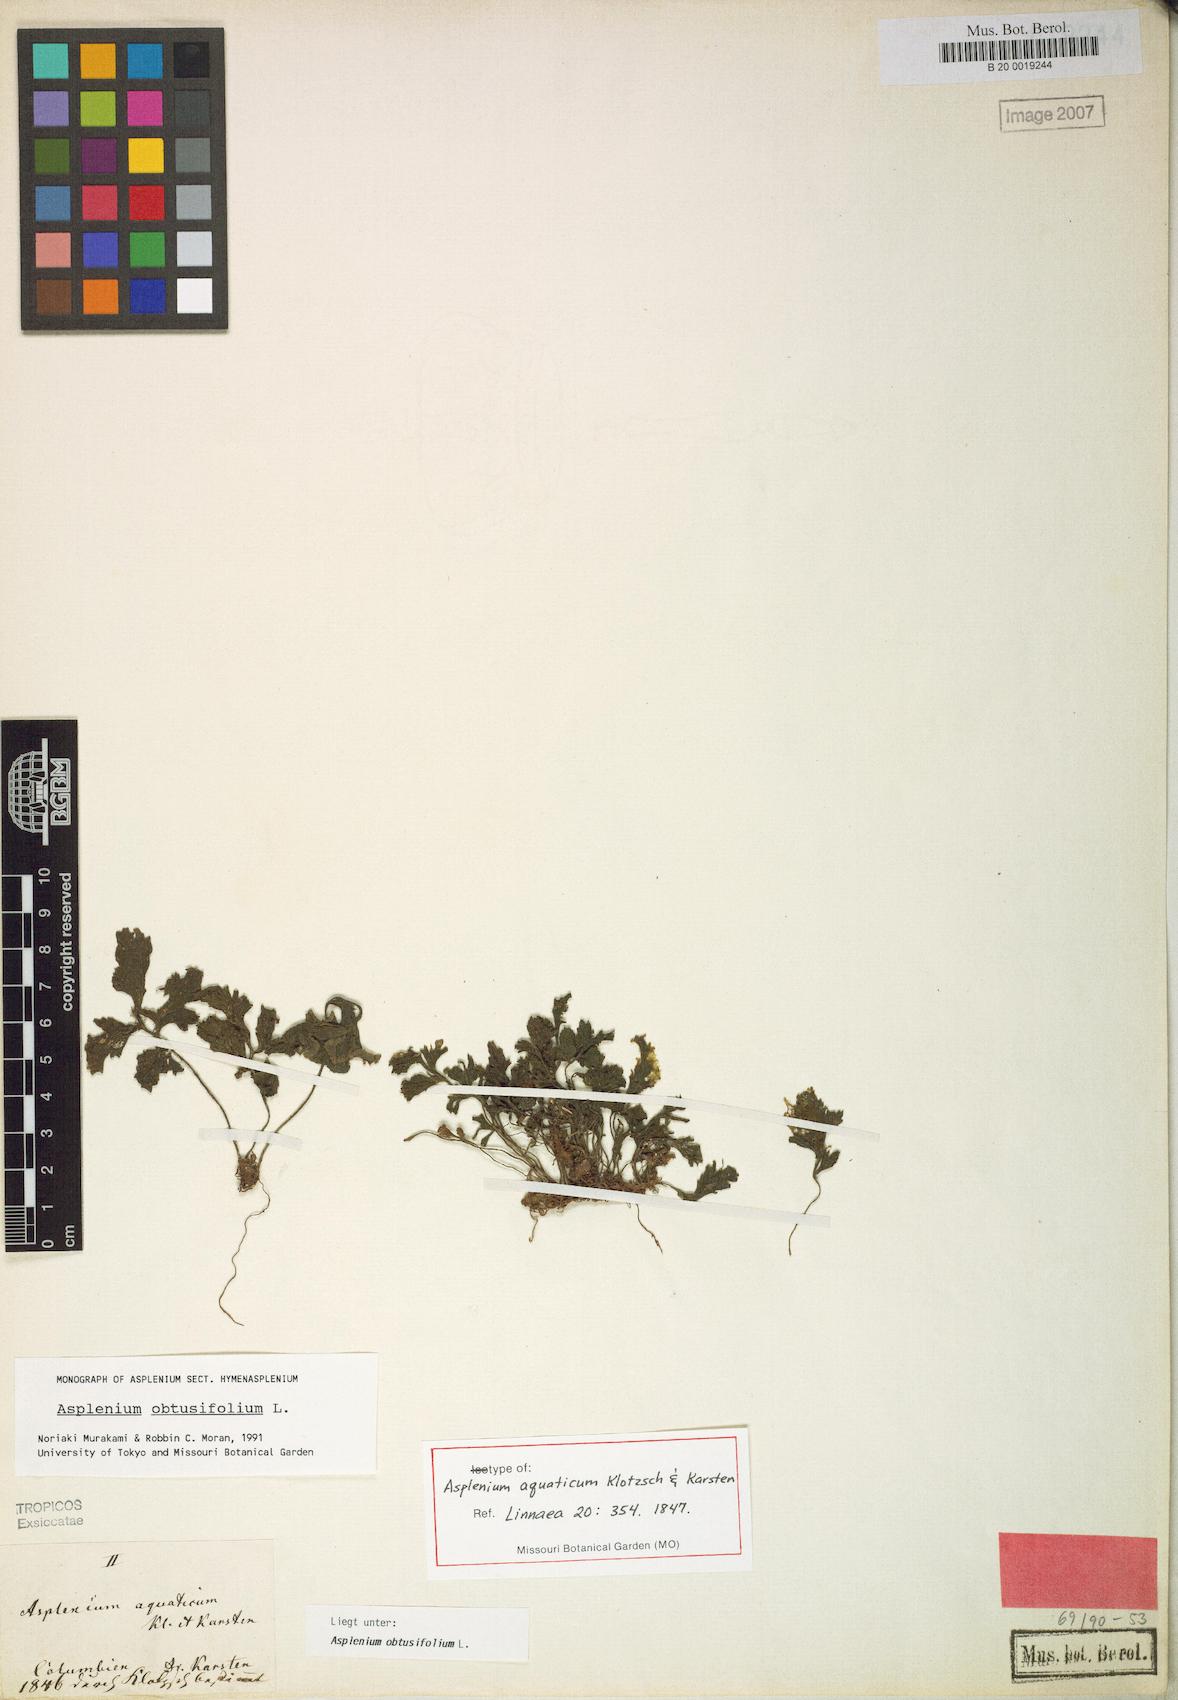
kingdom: Plantae
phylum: Tracheophyta
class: Polypodiopsida
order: Polypodiales
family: Aspleniaceae
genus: Hymenasplenium
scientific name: Hymenasplenium obtusifolium
